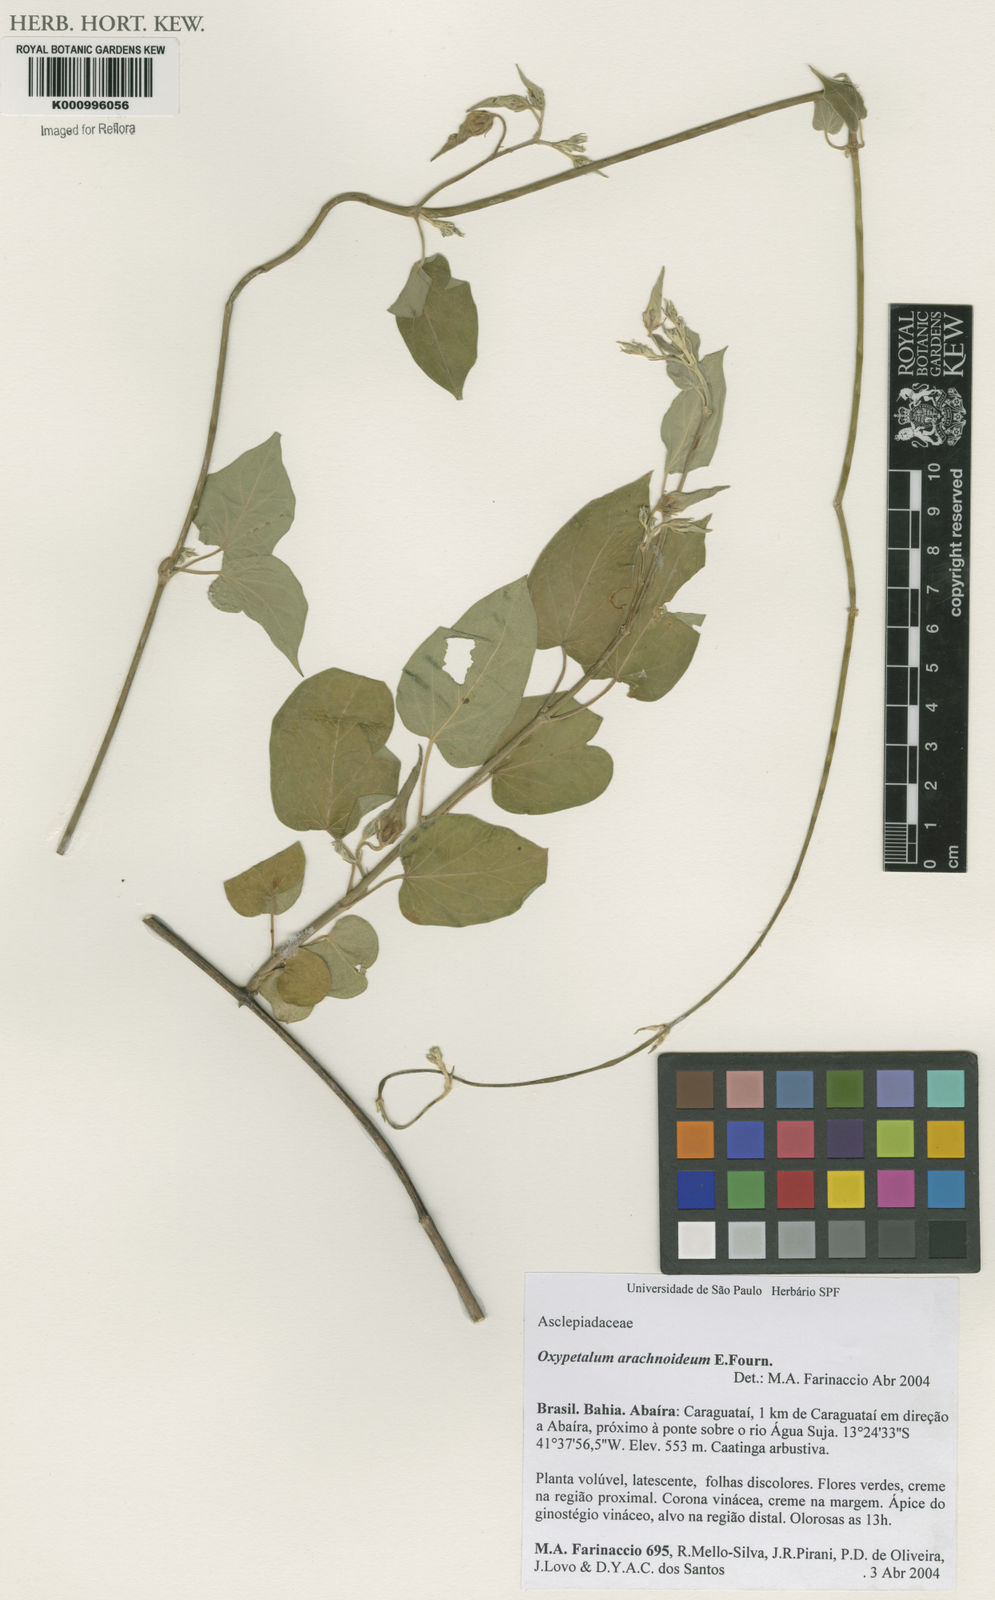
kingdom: Plantae
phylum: Tracheophyta
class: Magnoliopsida
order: Gentianales
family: Apocynaceae
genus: Oxypetalum
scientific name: Oxypetalum arachnoideum
